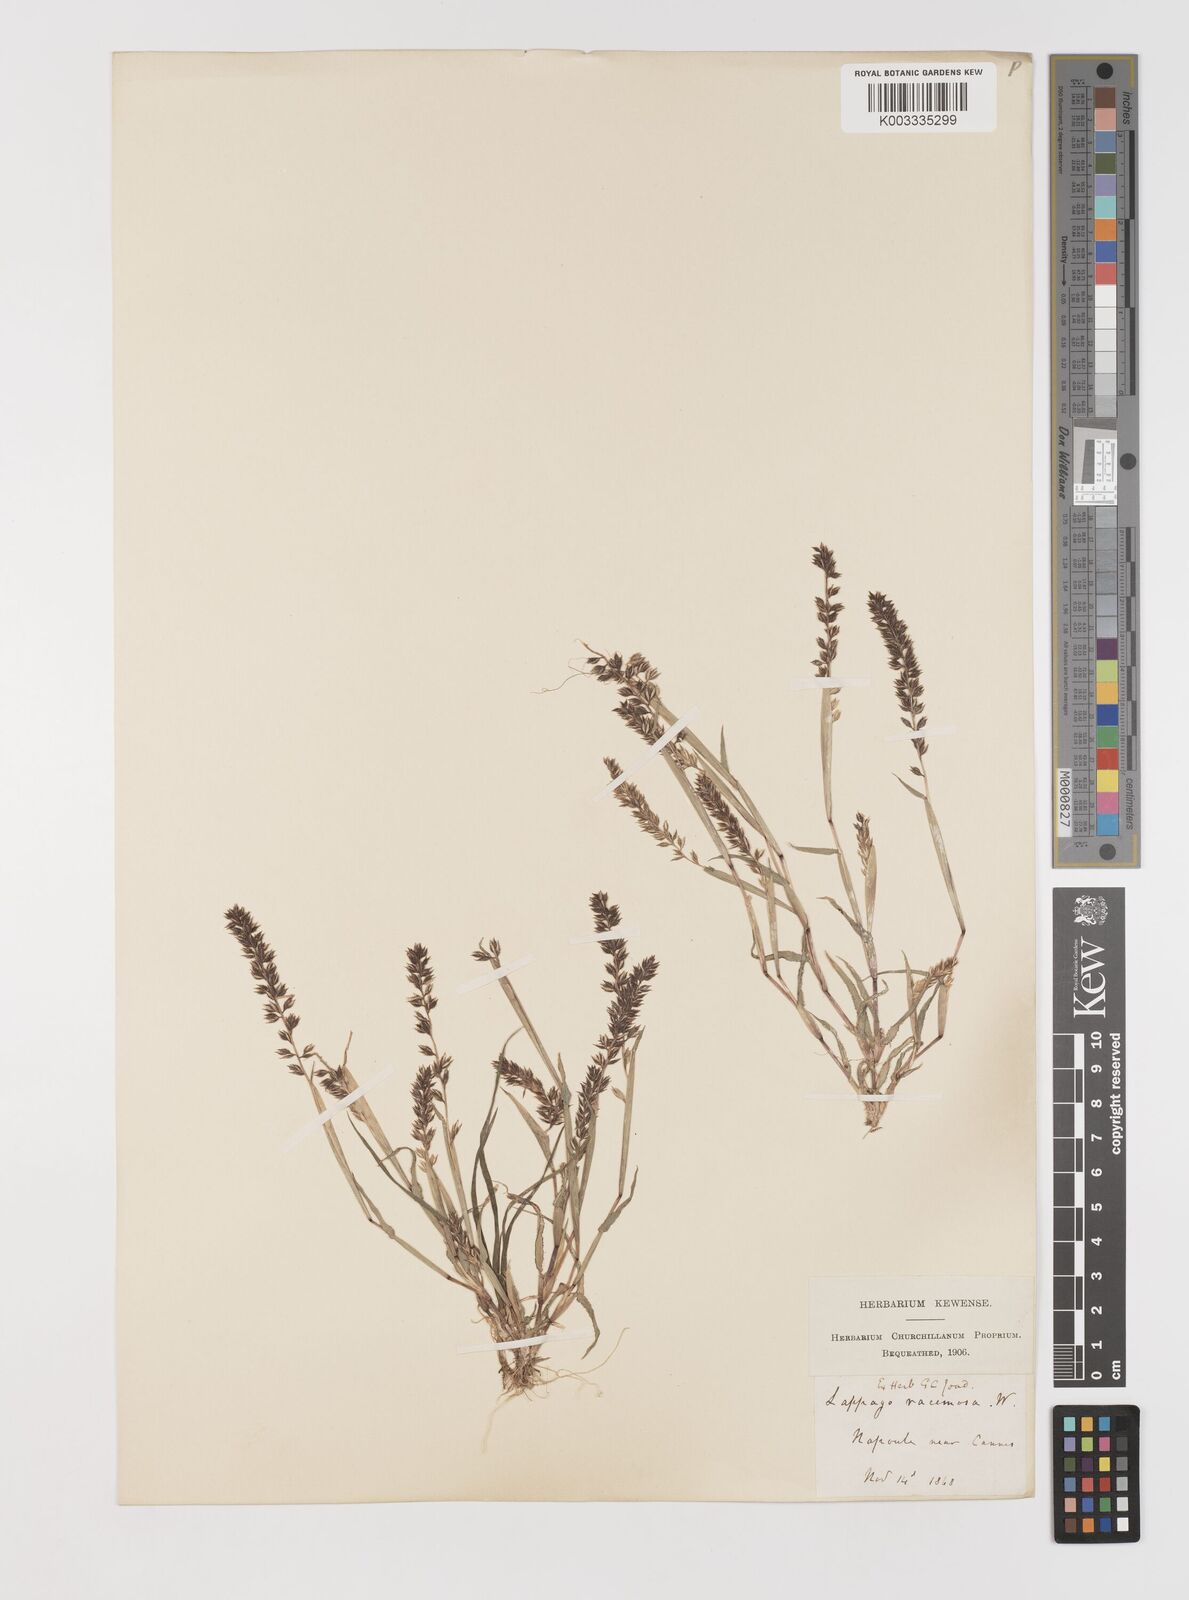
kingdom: Plantae
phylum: Tracheophyta
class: Liliopsida
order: Poales
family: Poaceae
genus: Tragus
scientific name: Tragus racemosus
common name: European bur-grass
